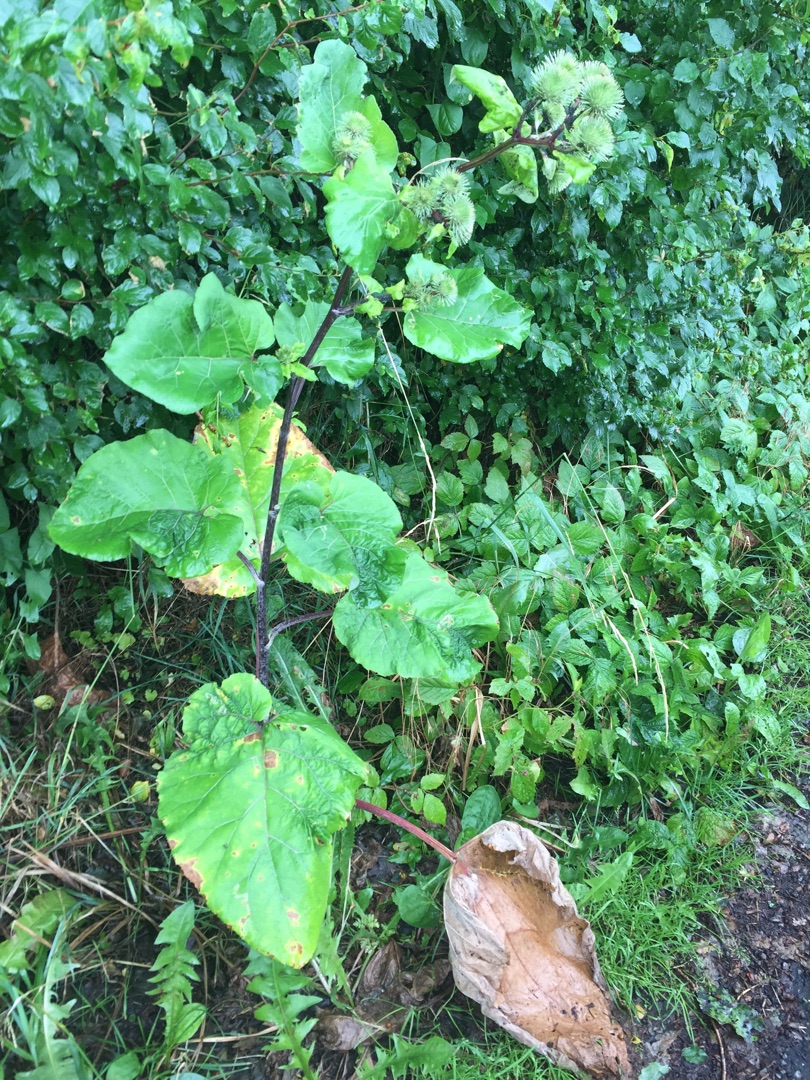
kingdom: Plantae
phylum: Tracheophyta
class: Magnoliopsida
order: Asterales
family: Asteraceae
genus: Arctium
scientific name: Arctium lappa
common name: Glat burre
